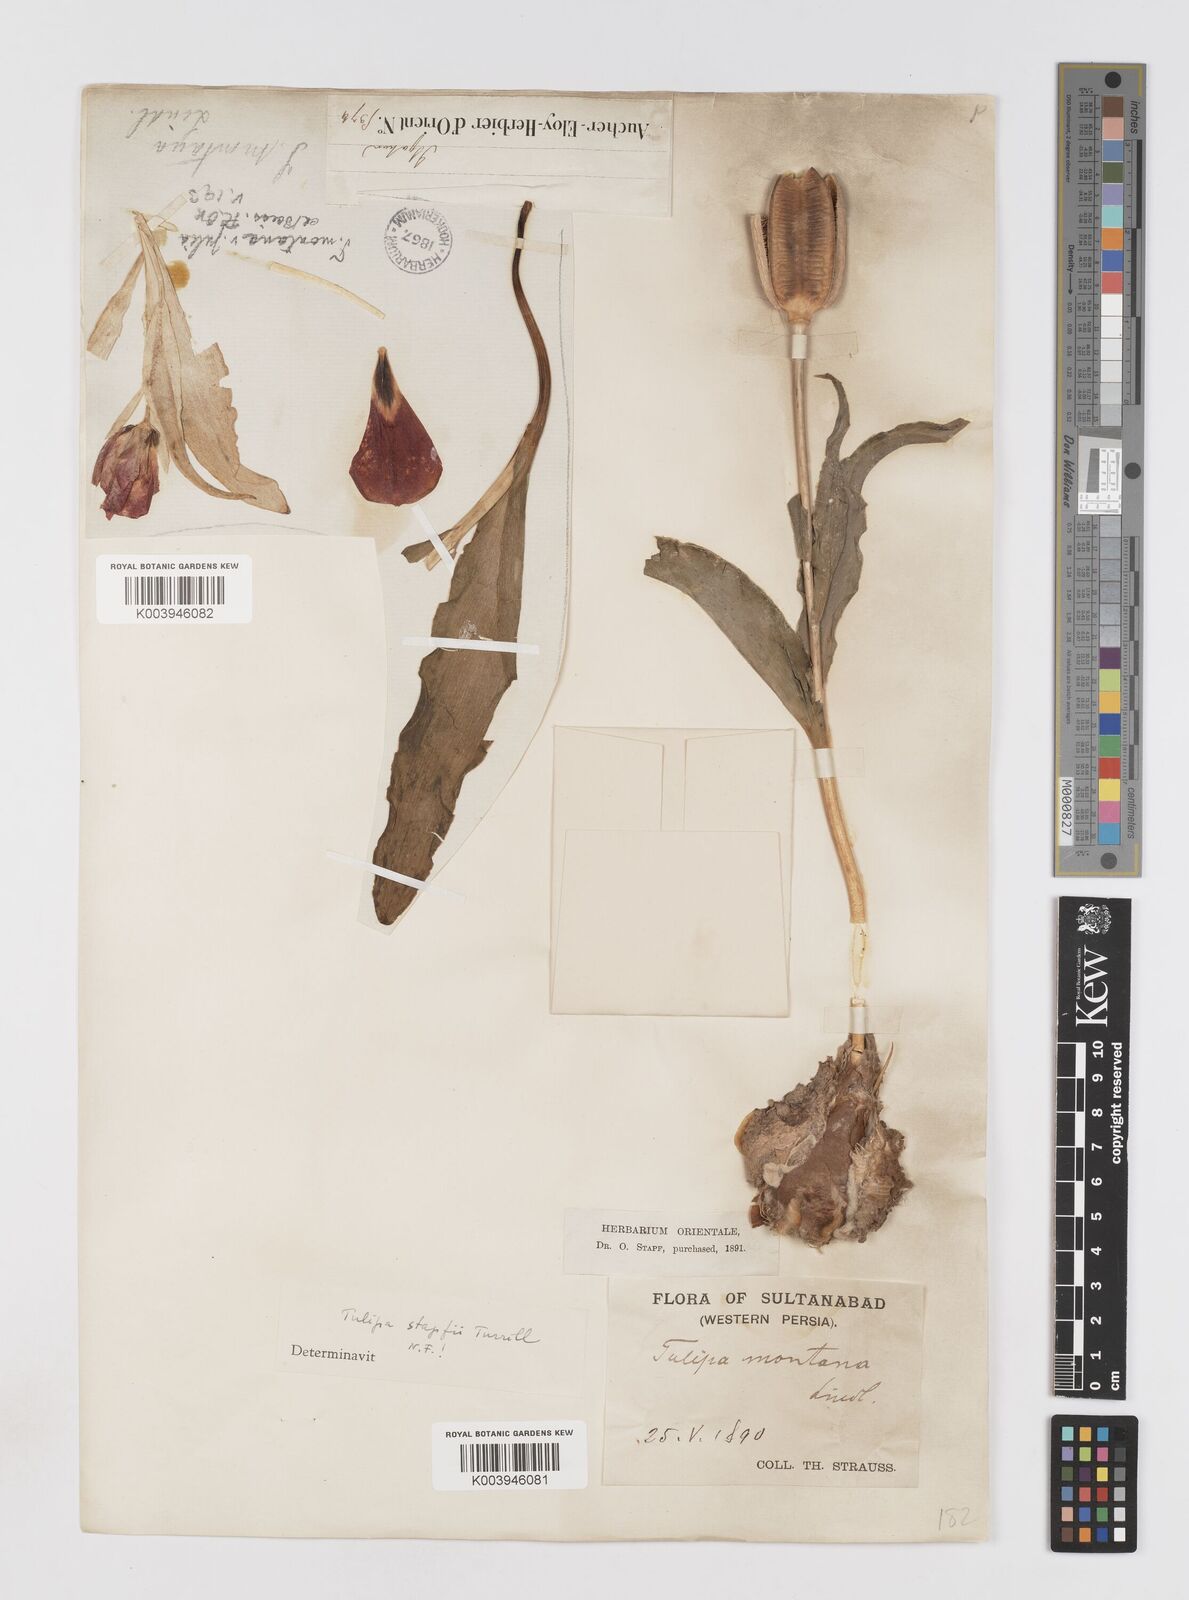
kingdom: Plantae
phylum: Tracheophyta
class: Liliopsida
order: Liliales
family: Liliaceae
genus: Tulipa
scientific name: Tulipa systola
